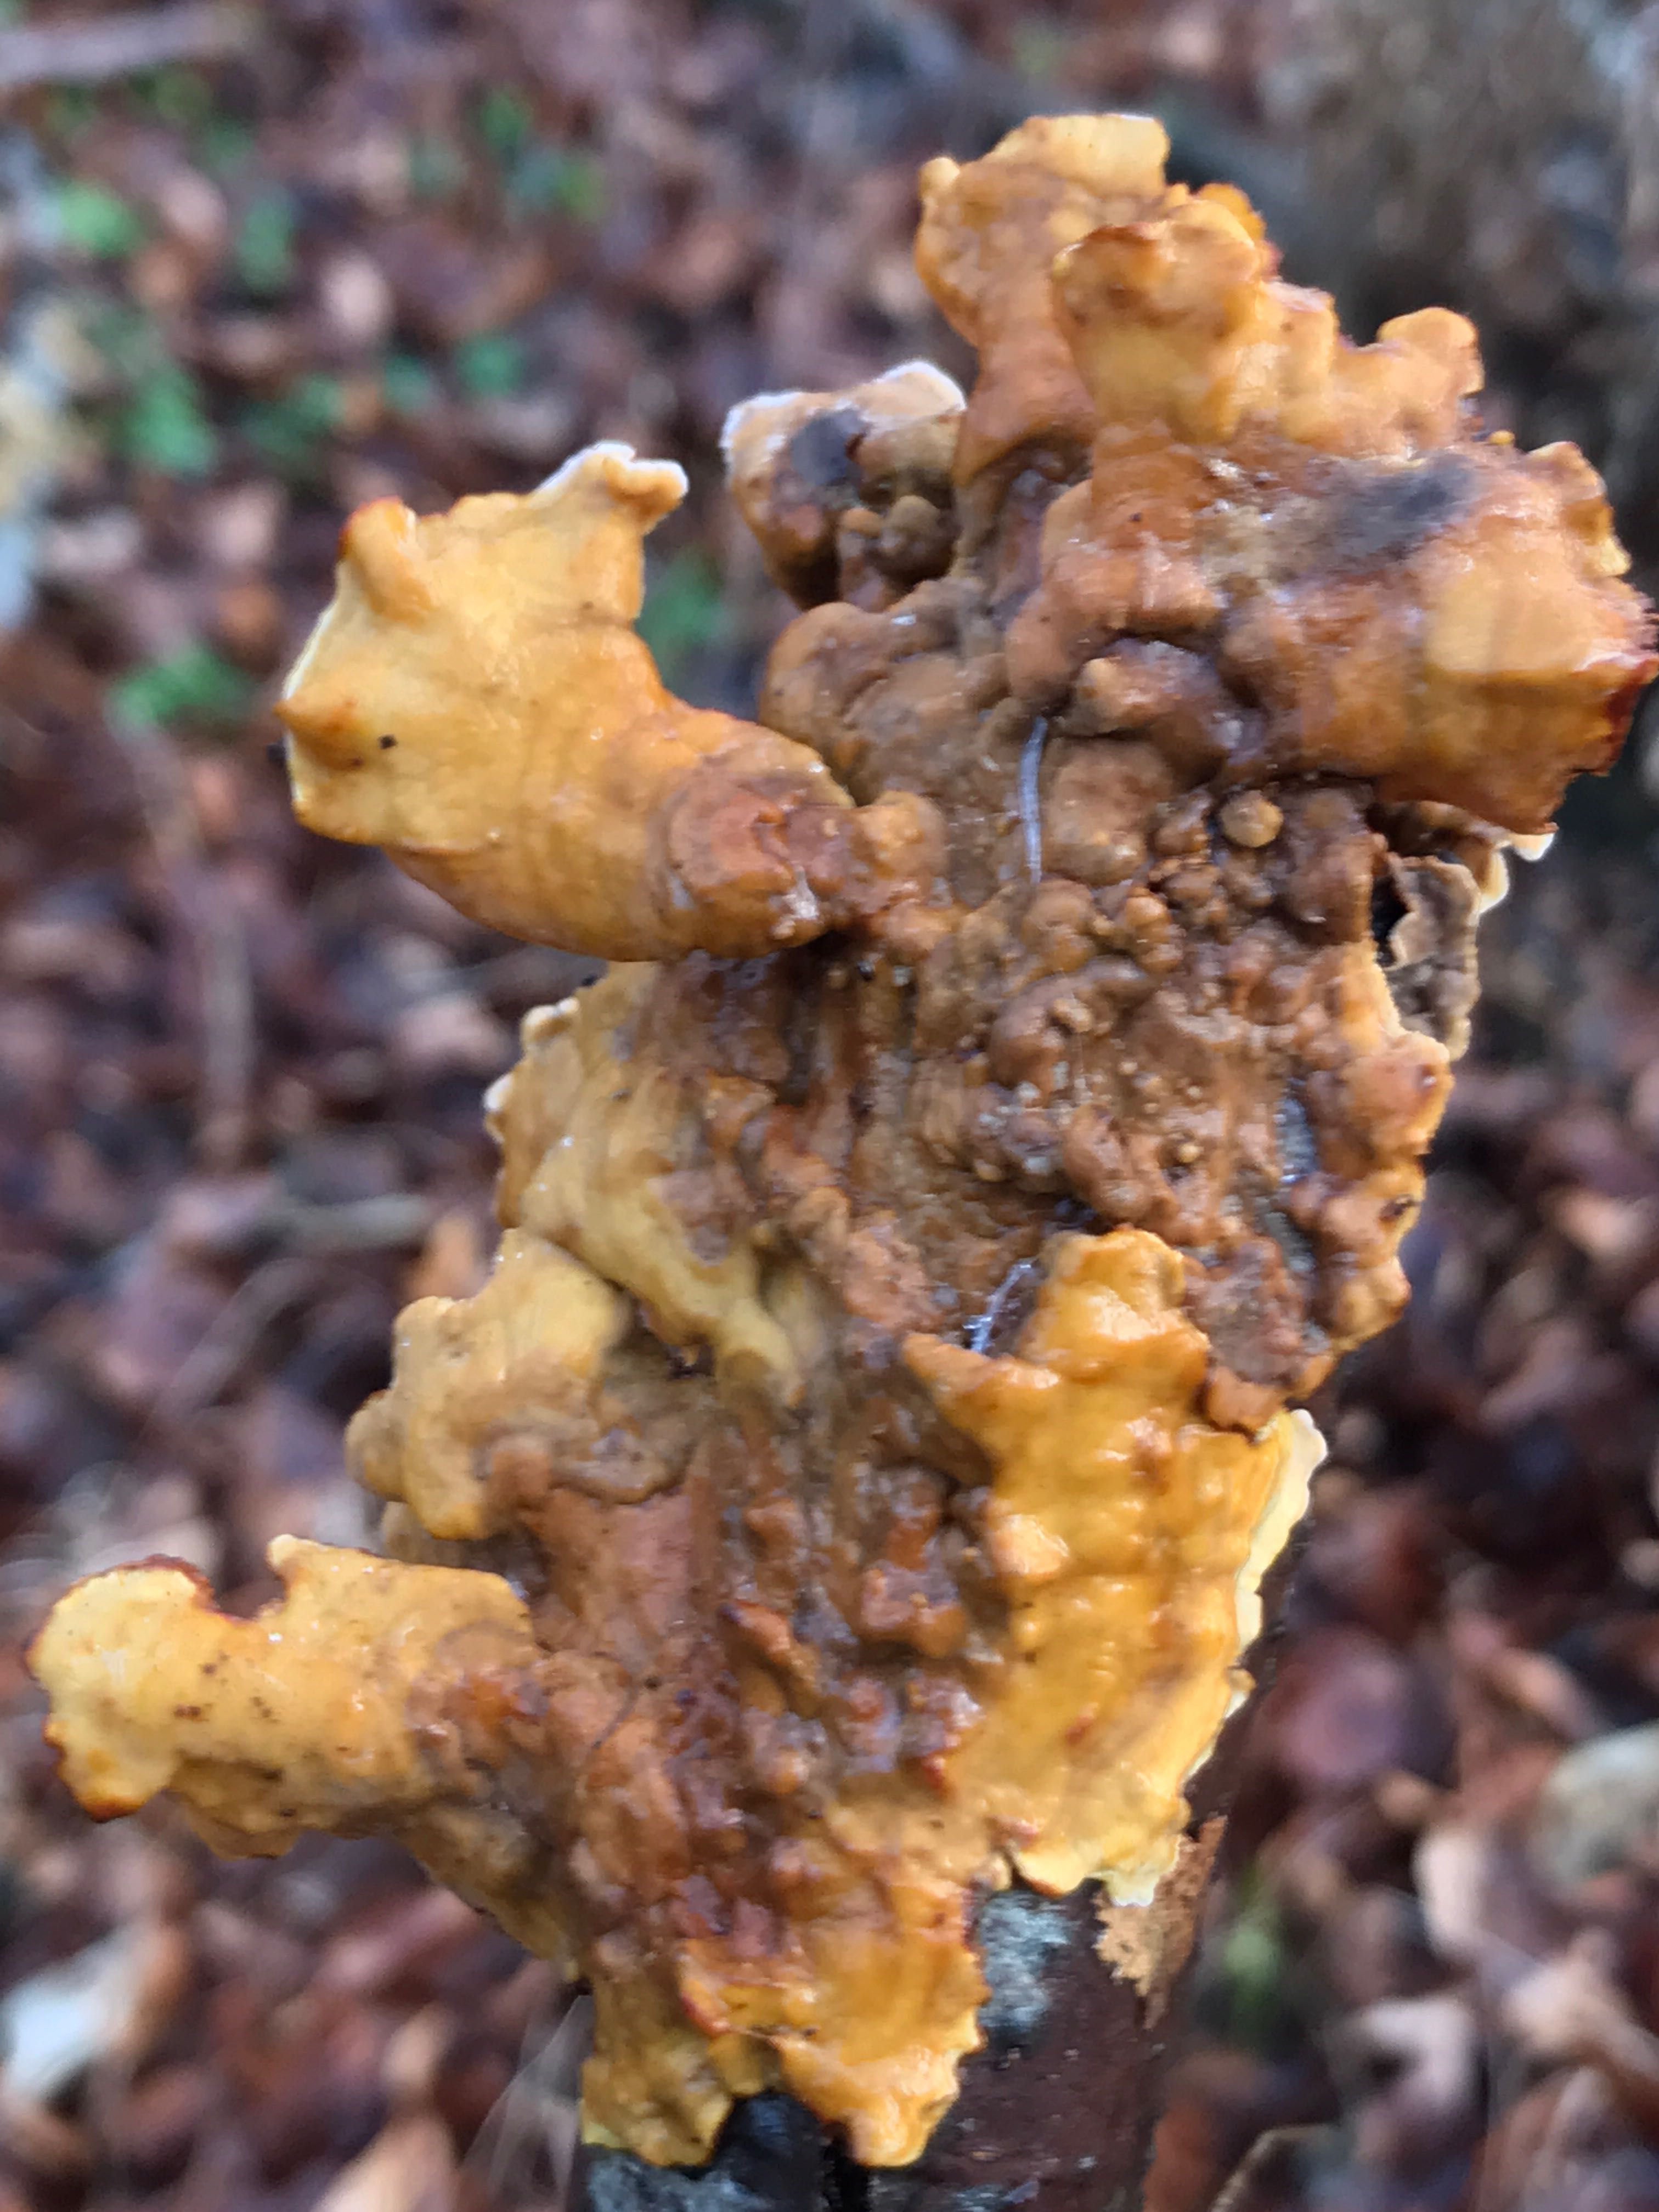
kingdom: Fungi
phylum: Basidiomycota
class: Agaricomycetes
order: Russulales
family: Stereaceae
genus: Stereum
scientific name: Stereum subtomentosum
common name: smuk lædersvamp
